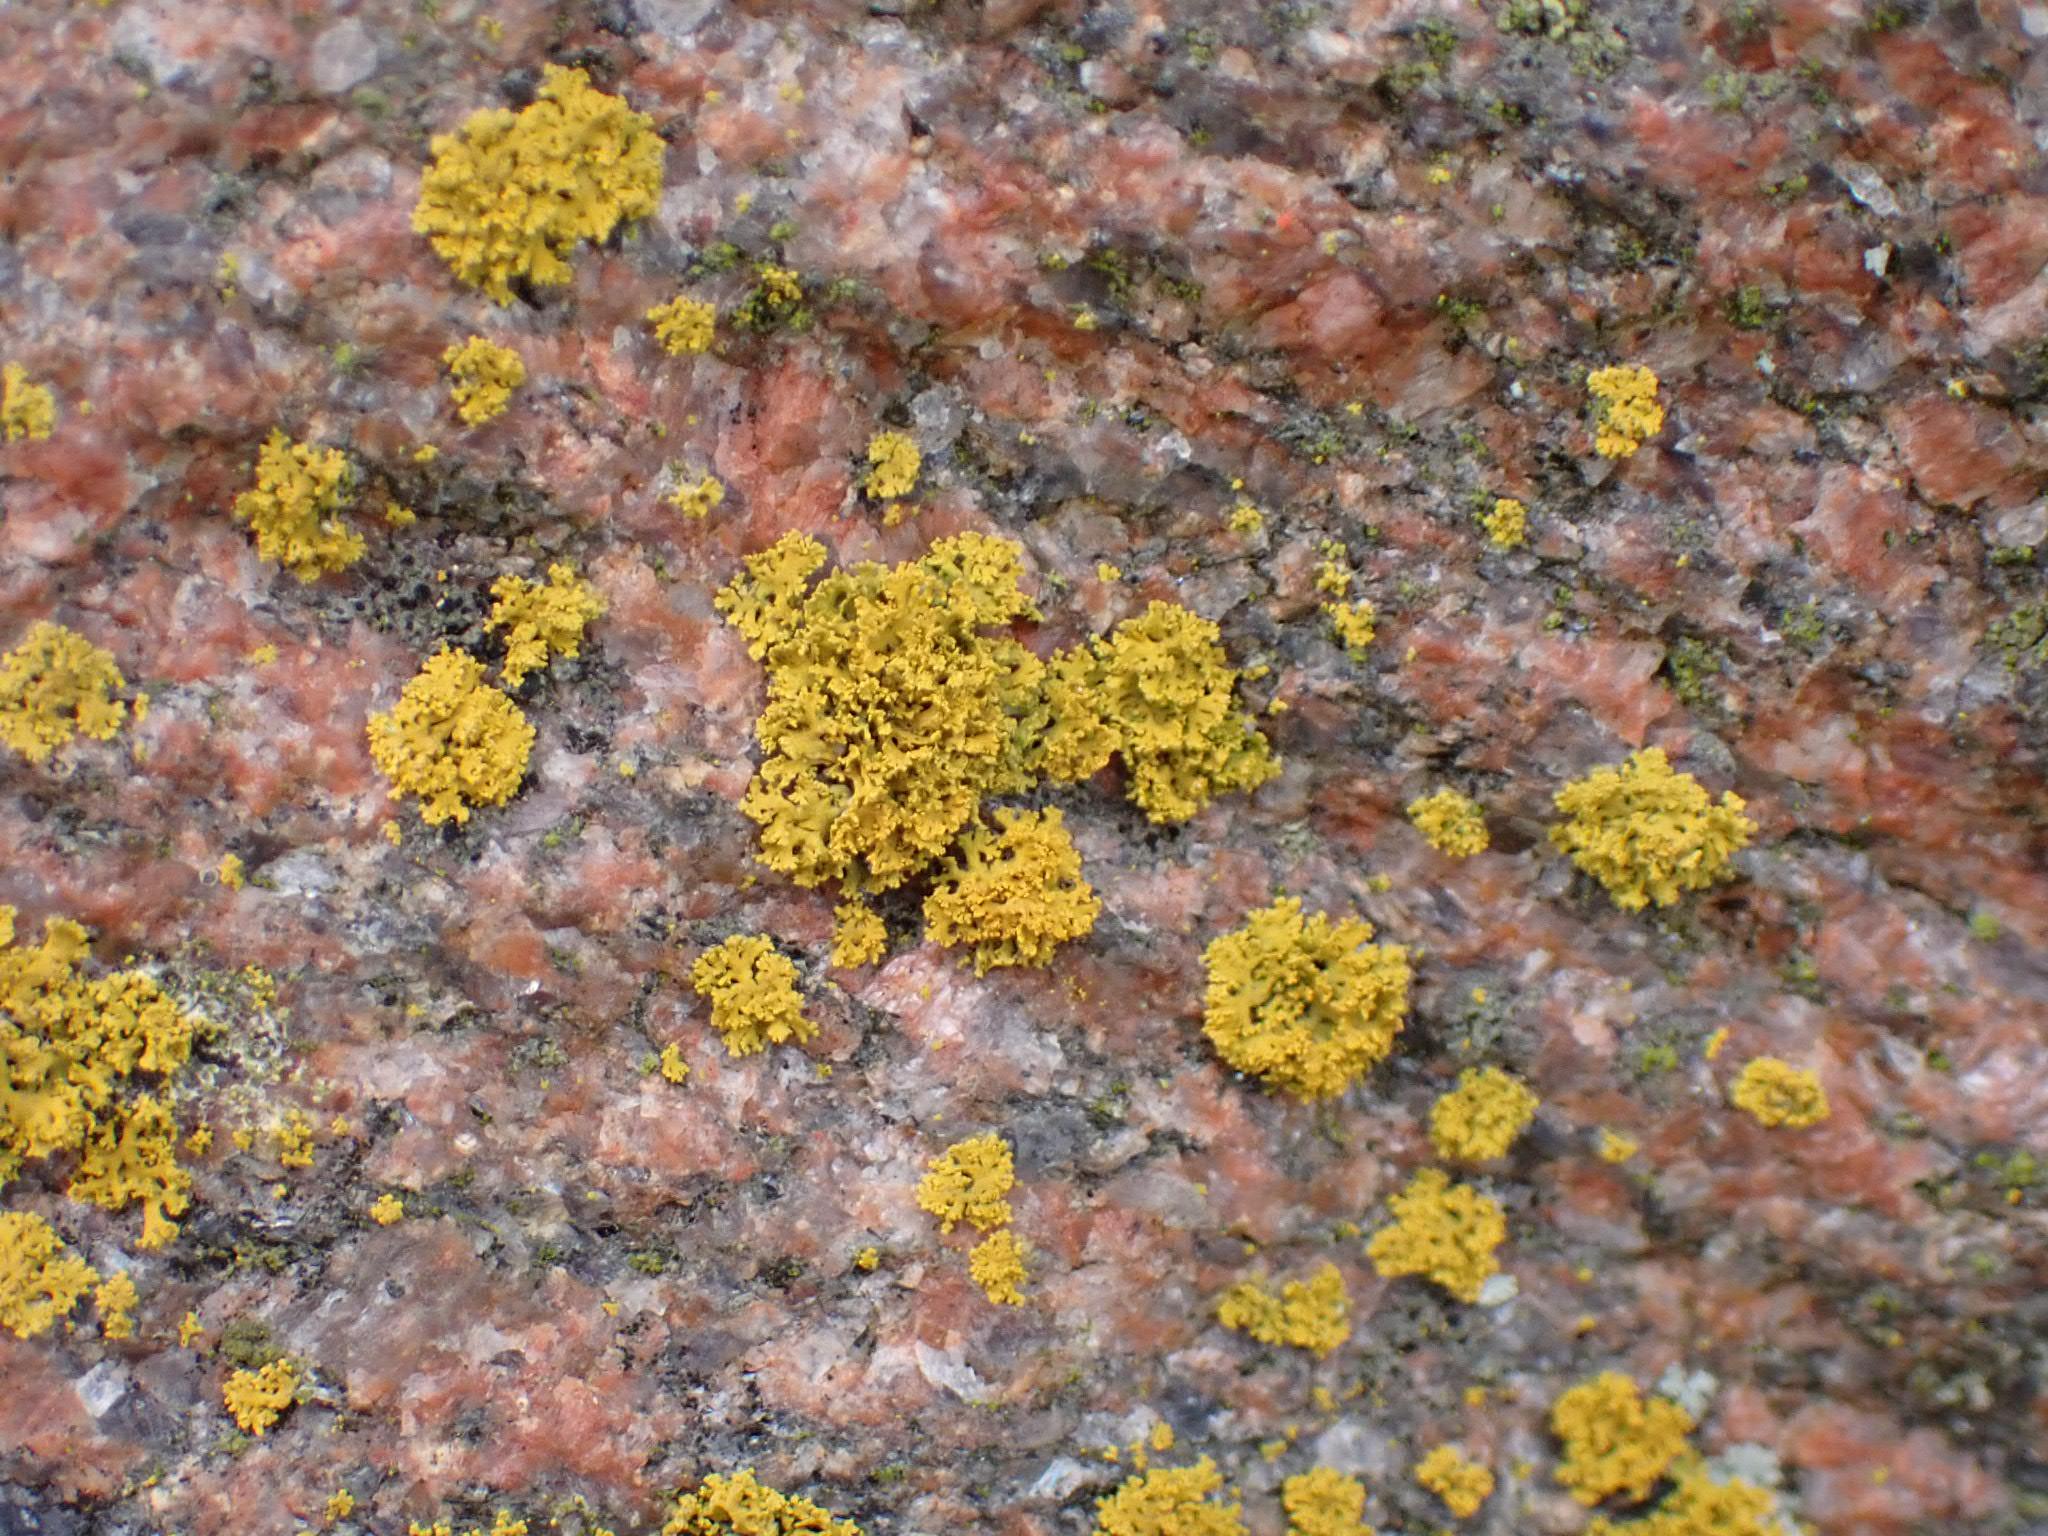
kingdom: Fungi
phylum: Ascomycota
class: Lecanoromycetes
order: Teloschistales
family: Teloschistaceae
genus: Polycauliona
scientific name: Polycauliona candelaria
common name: tue-orangelav
